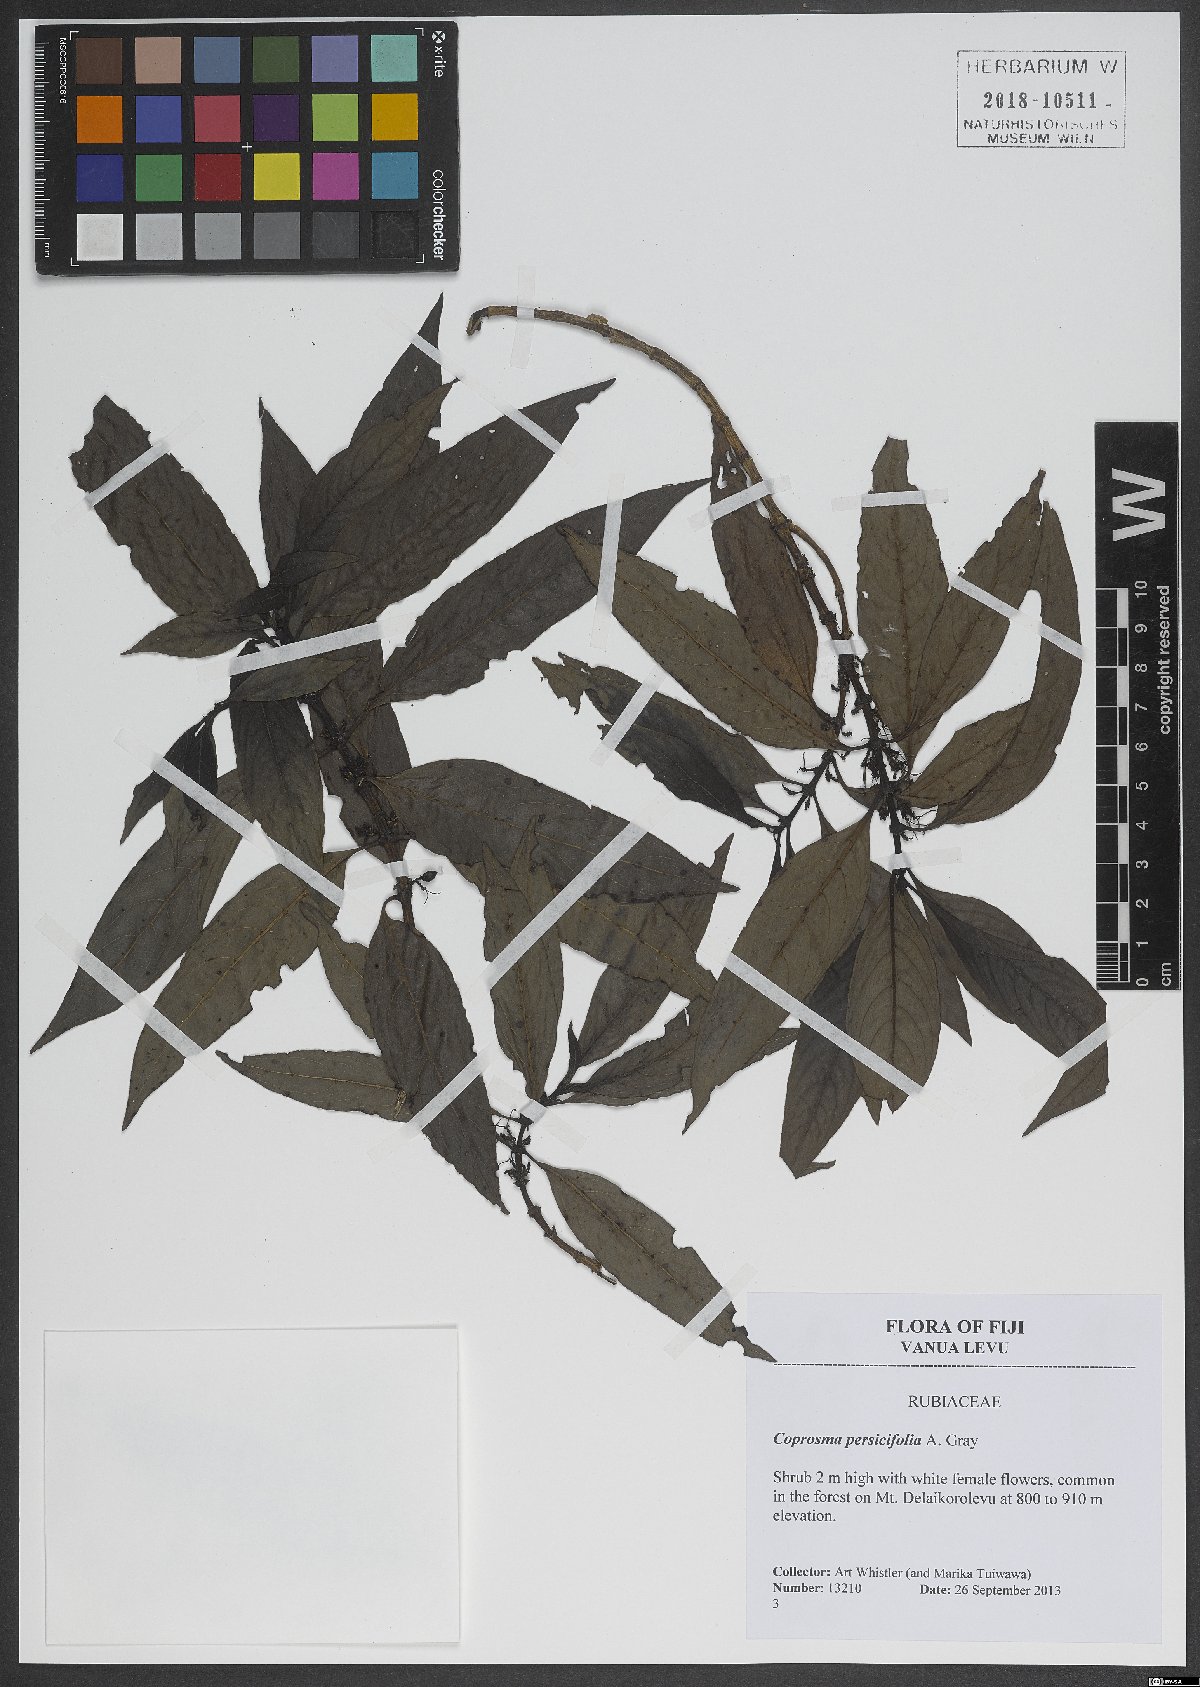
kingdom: Plantae
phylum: Tracheophyta
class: Magnoliopsida
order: Gentianales
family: Rubiaceae
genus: Coprosma
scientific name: Coprosma persicifolia
